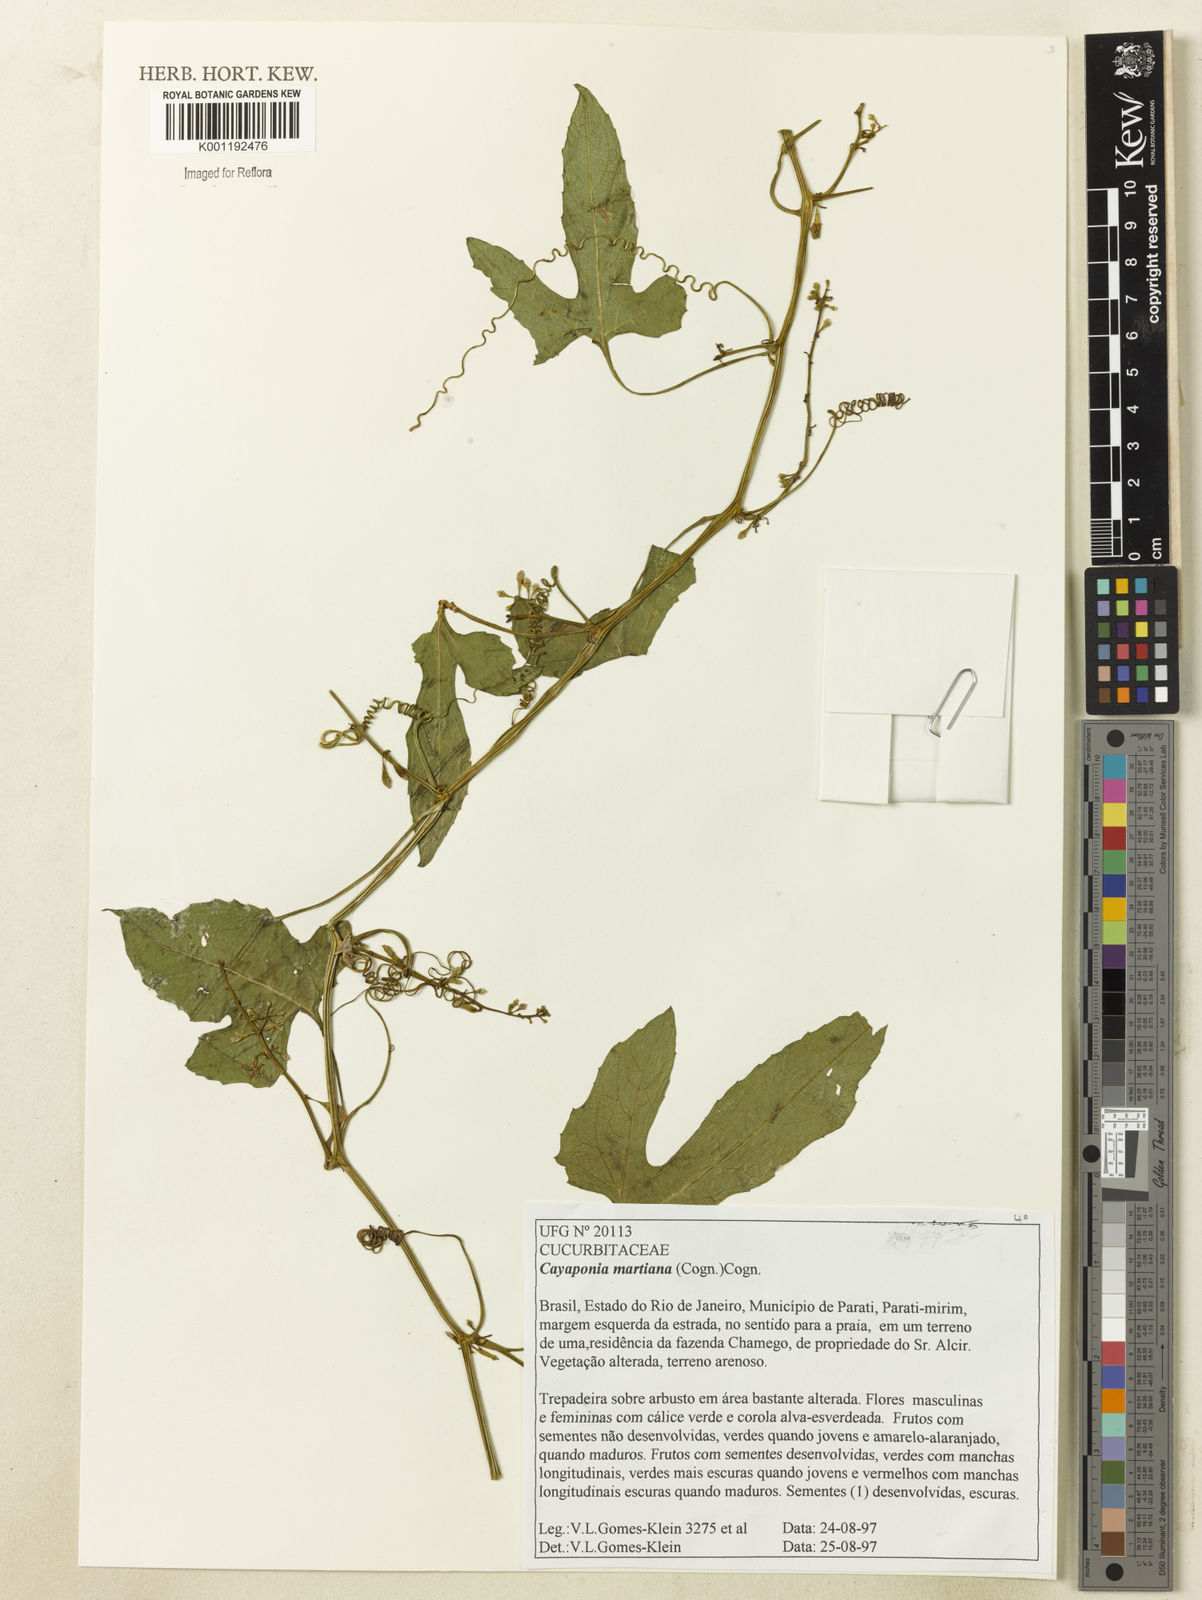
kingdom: Plantae
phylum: Tracheophyta
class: Magnoliopsida
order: Cucurbitales
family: Cucurbitaceae
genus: Cayaponia
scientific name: Cayaponia martiana
